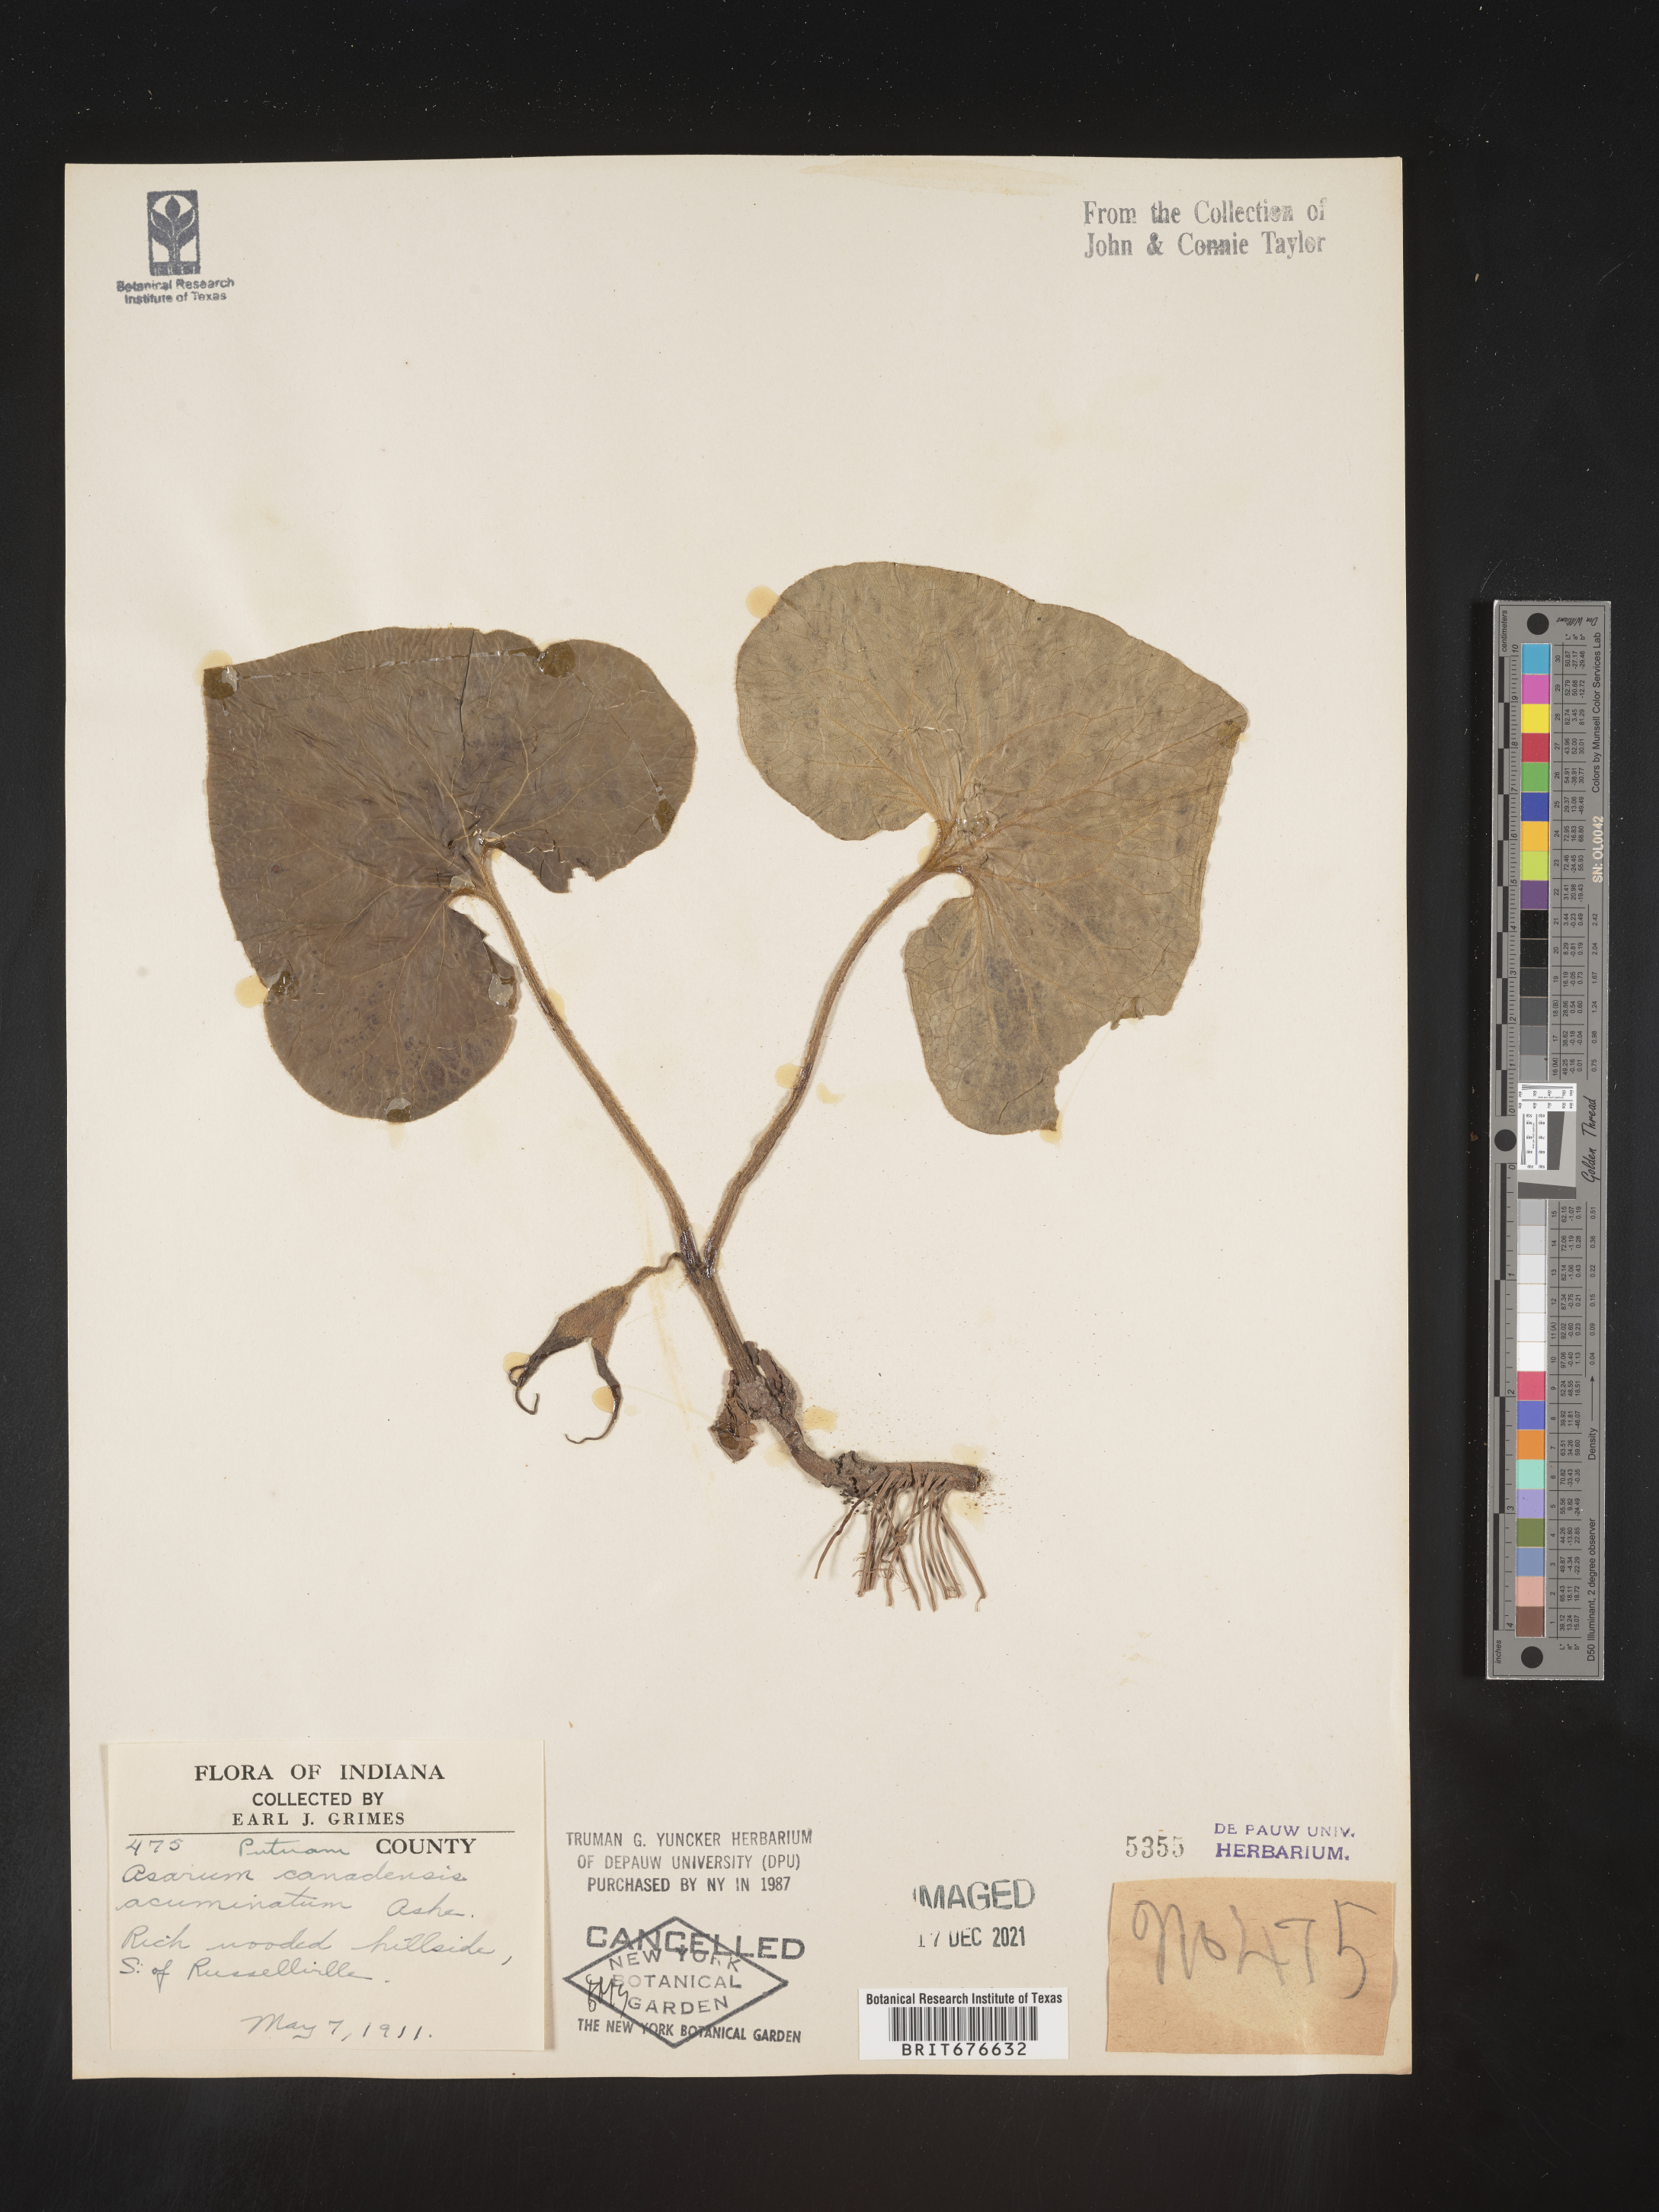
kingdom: Plantae
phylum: Tracheophyta
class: Magnoliopsida
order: Piperales
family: Aristolochiaceae
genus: Asarum
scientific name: Asarum canadense
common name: Wild ginger
